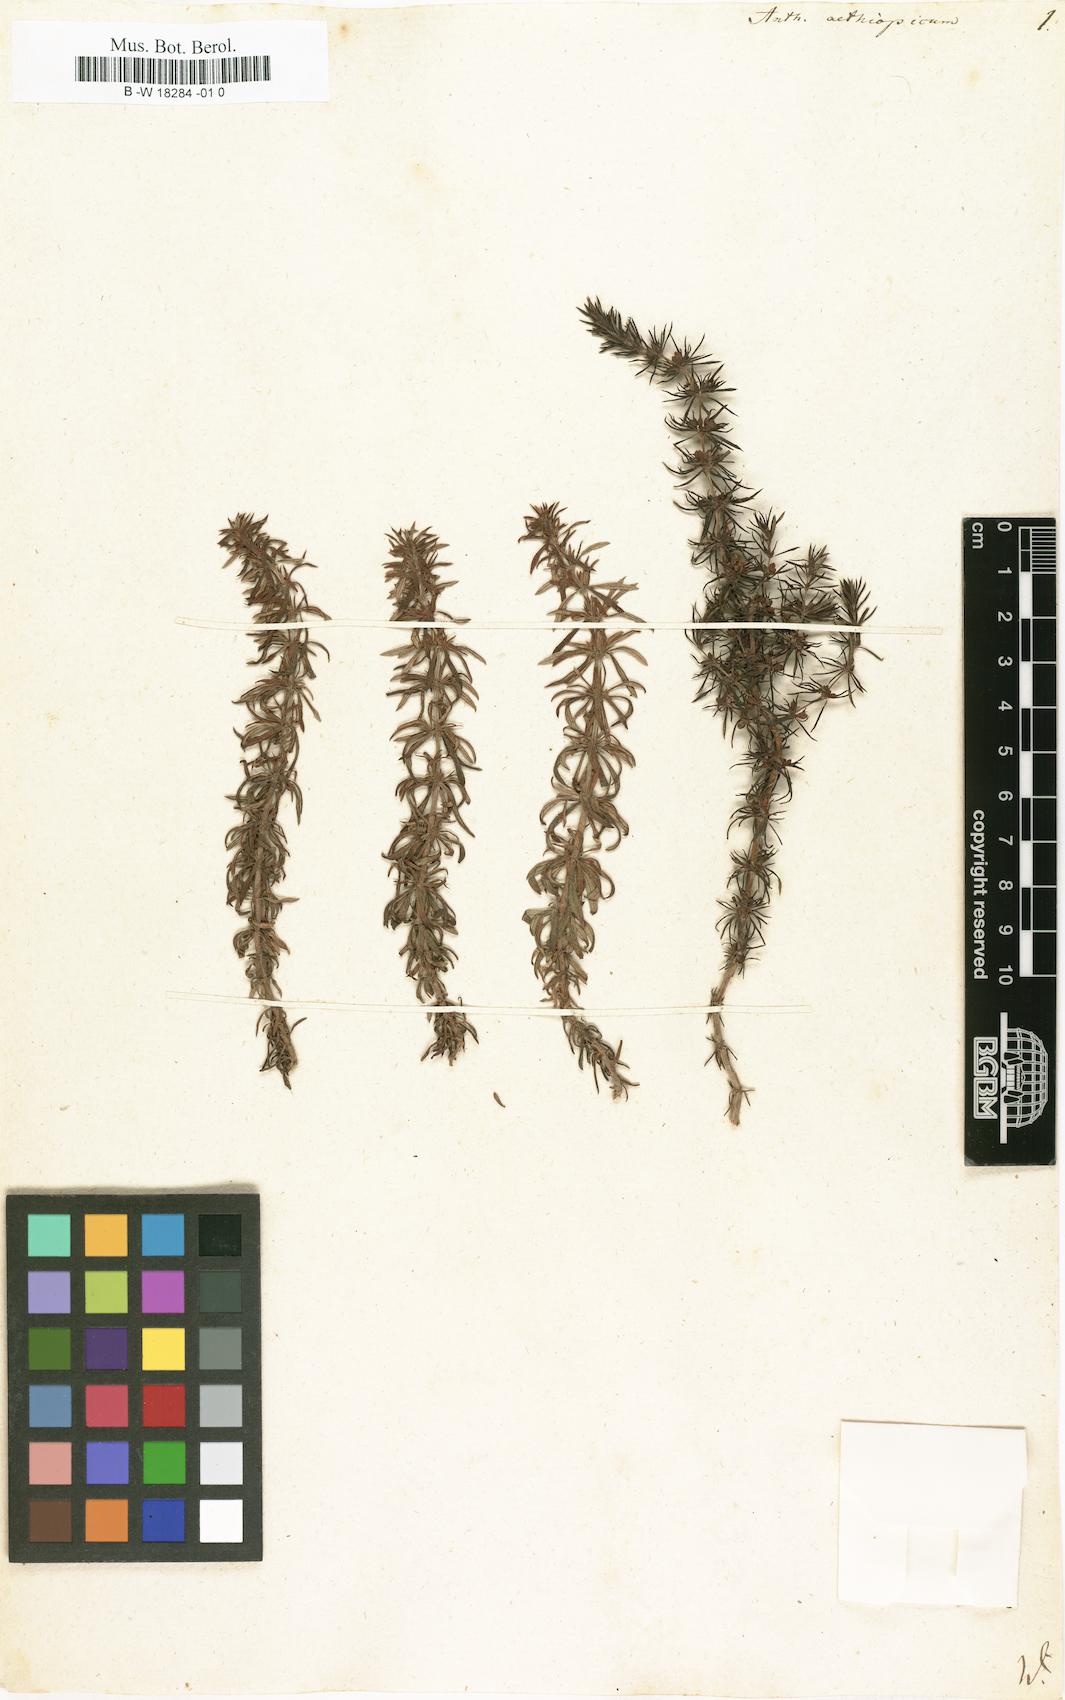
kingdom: Plantae
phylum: Tracheophyta
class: Magnoliopsida
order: Gentianales
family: Rubiaceae
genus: Anthospermum
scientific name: Anthospermum aethiopicum
